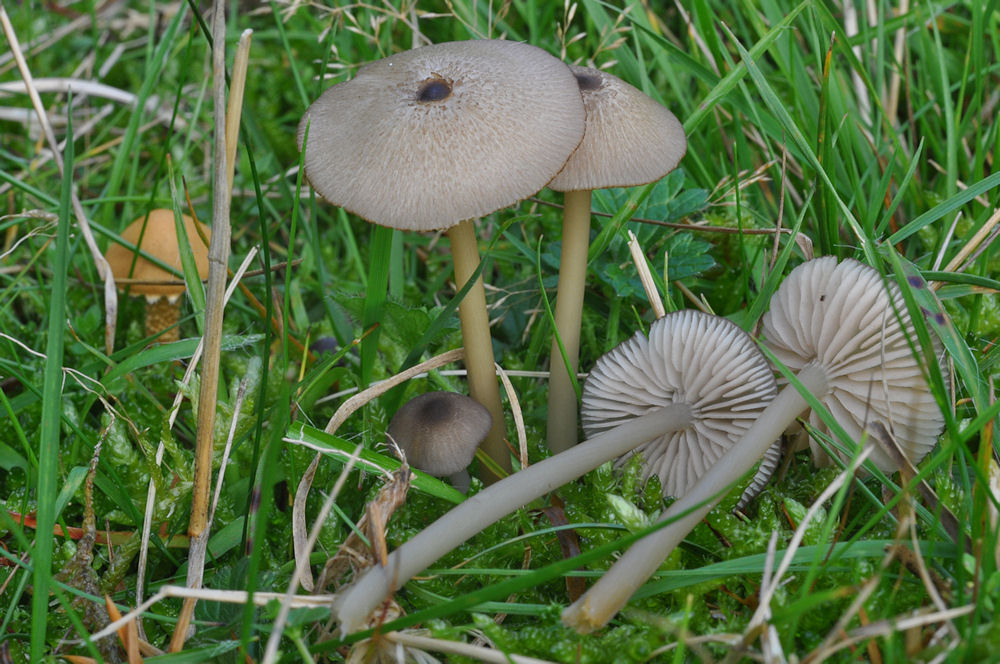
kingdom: Fungi
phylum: Basidiomycota
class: Agaricomycetes
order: Agaricales
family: Entolomataceae
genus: Entoloma
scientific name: Entoloma exile
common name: rødplettet rødblad
